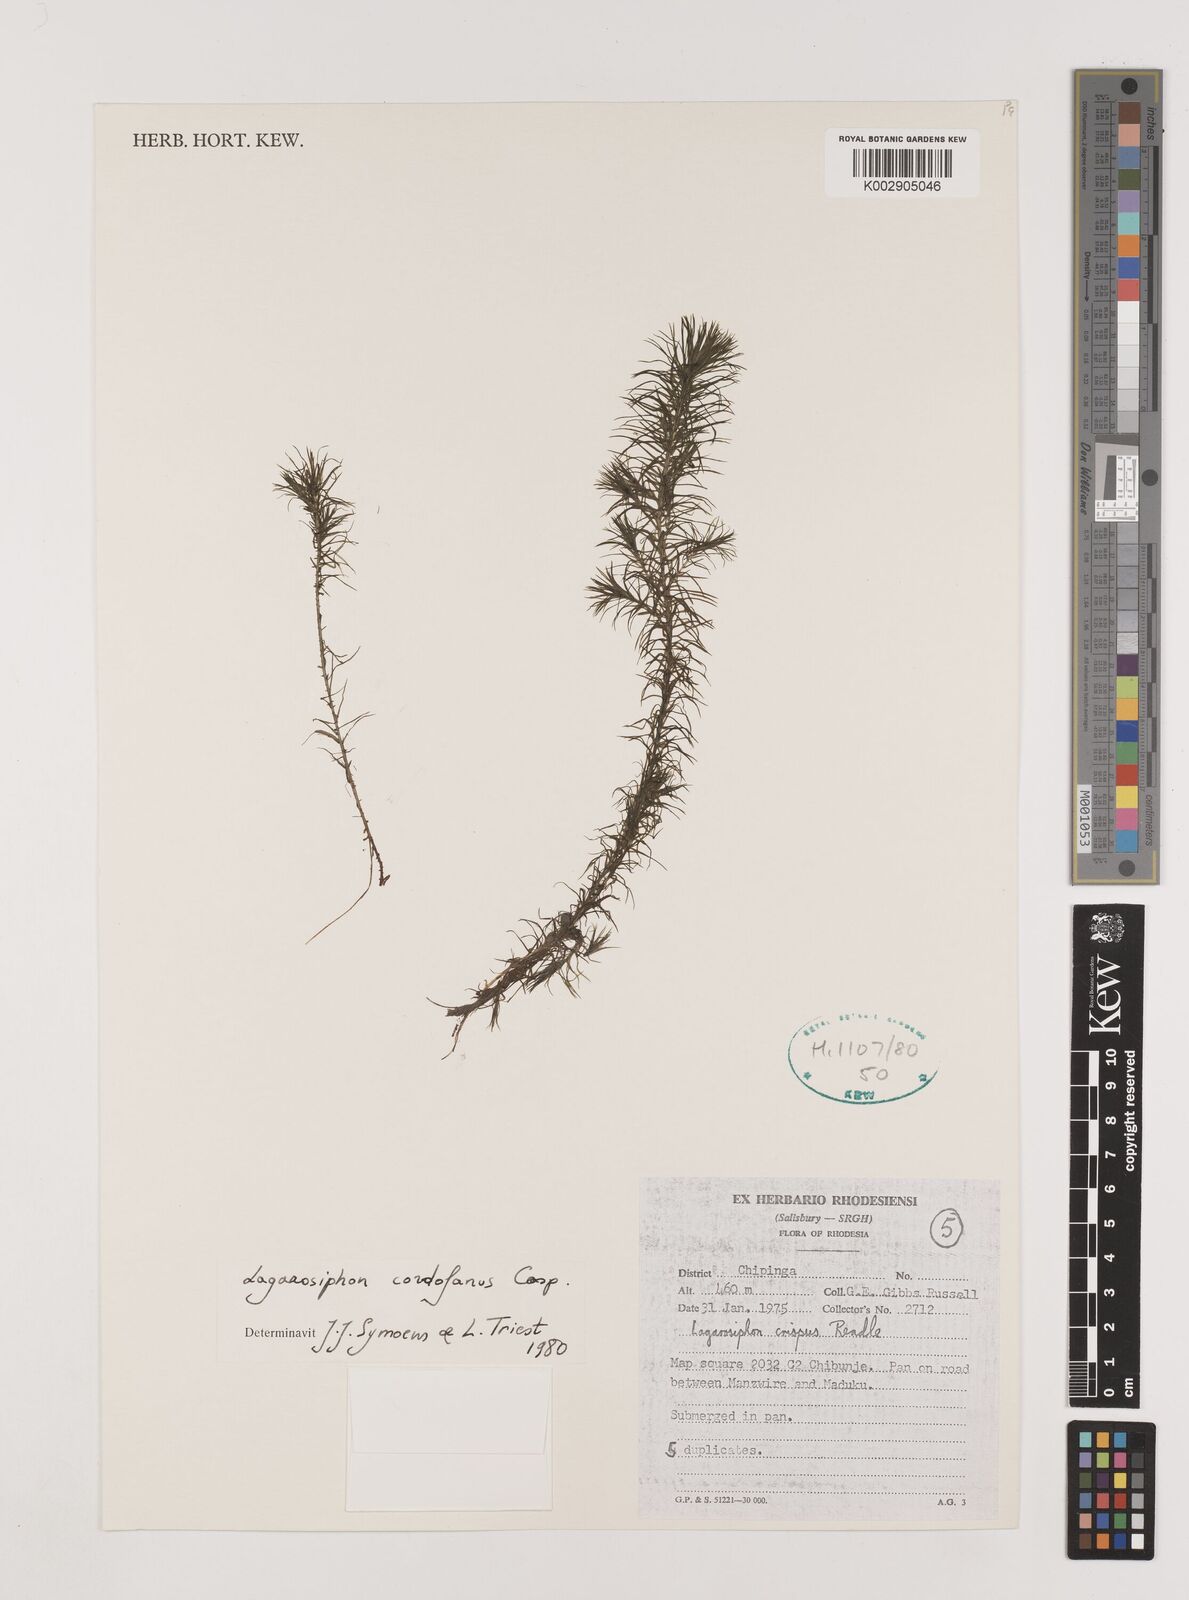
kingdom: Plantae
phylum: Tracheophyta
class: Liliopsida
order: Alismatales
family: Hydrocharitaceae
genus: Lagarosiphon
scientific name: Lagarosiphon cordofanus
